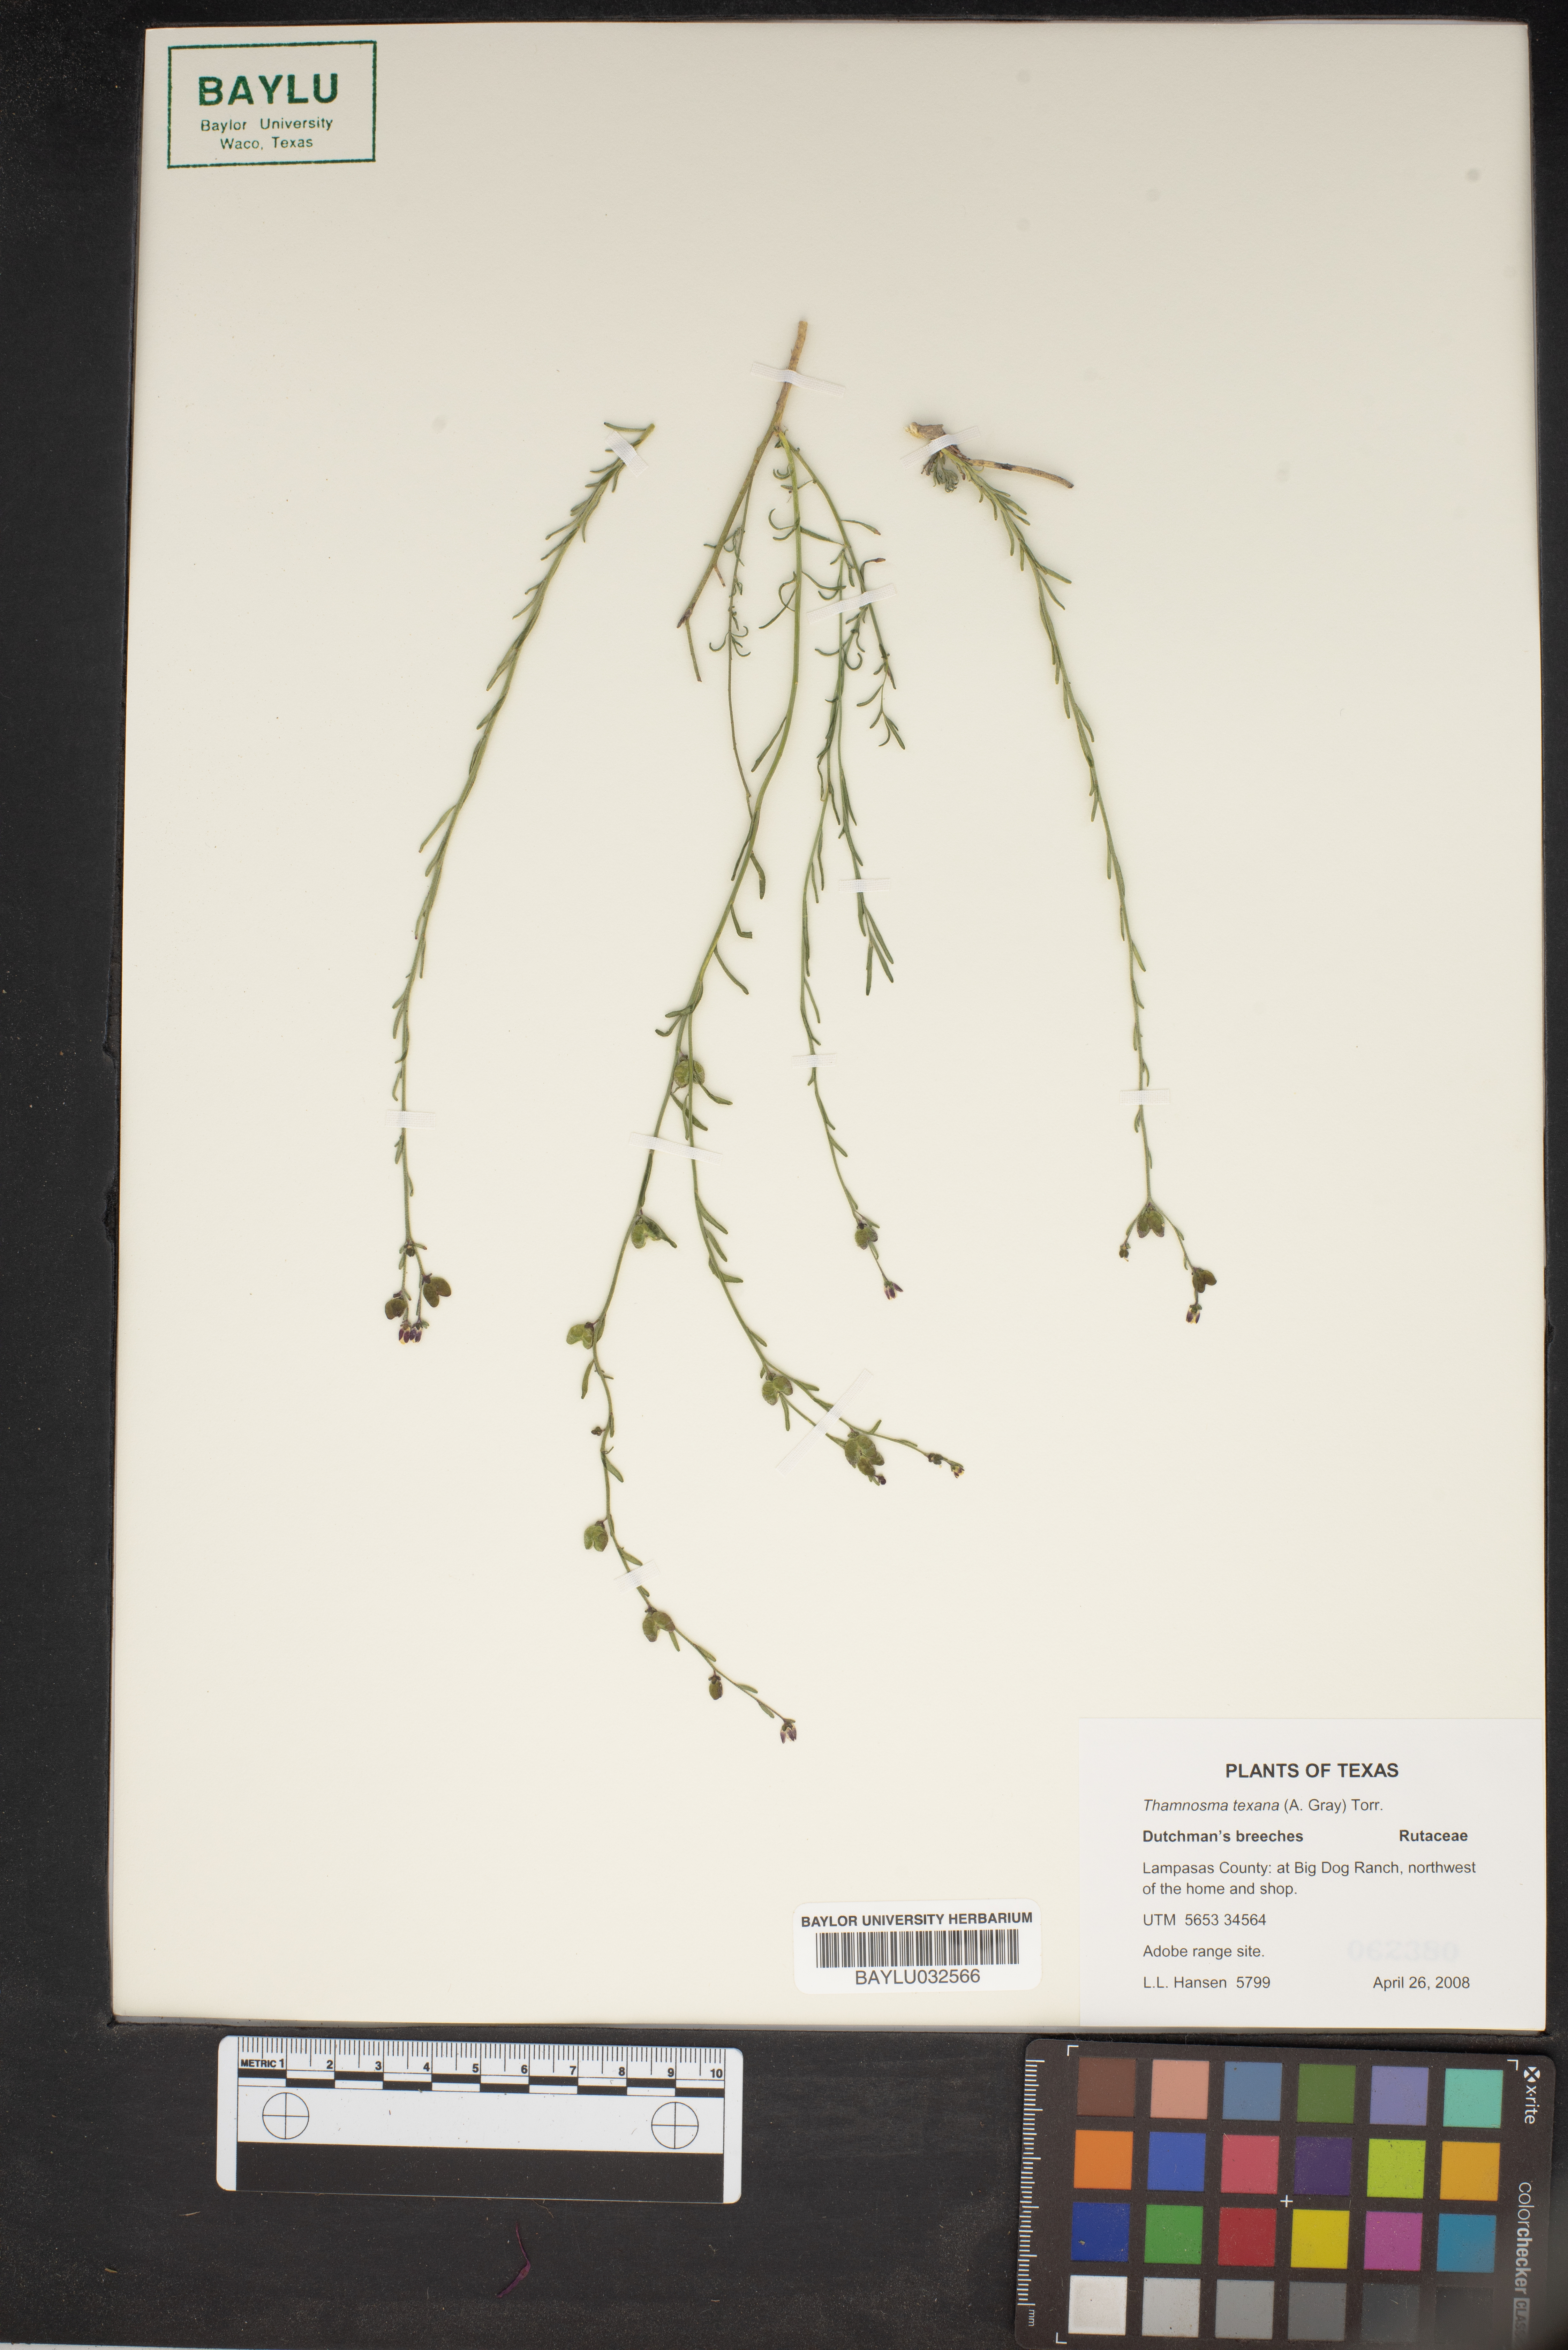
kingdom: Plantae
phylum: Tracheophyta
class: Magnoliopsida
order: Sapindales
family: Rutaceae
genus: Thamnosma
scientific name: Thamnosma texana
